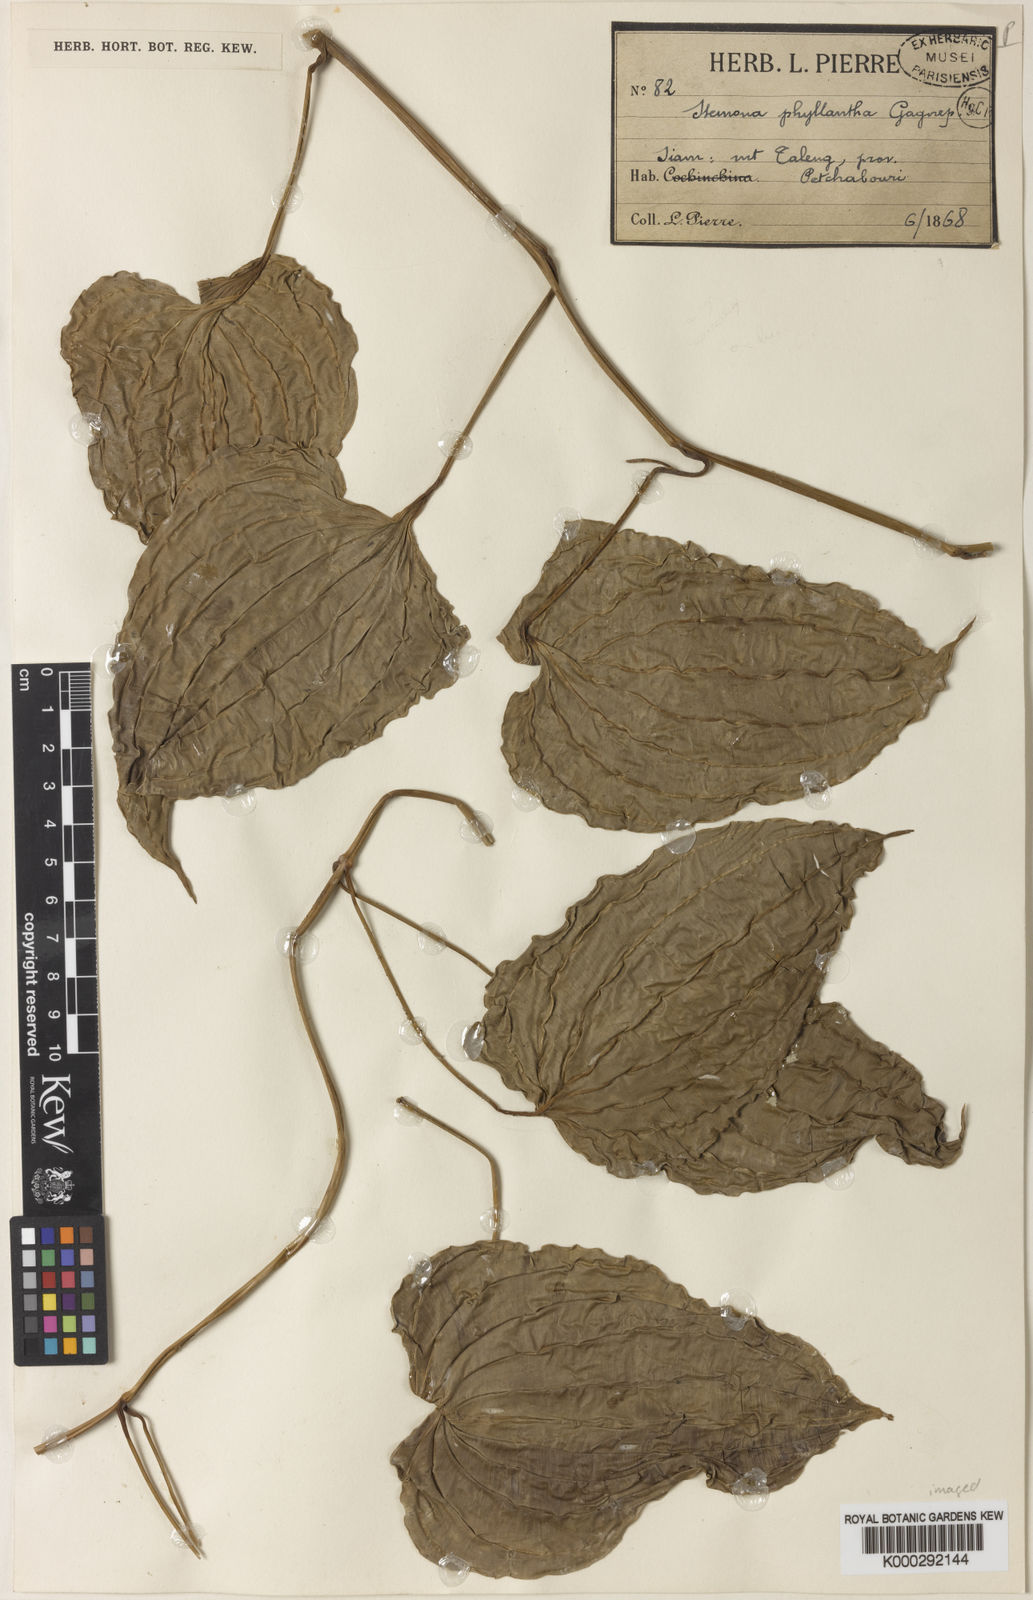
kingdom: Plantae
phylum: Tracheophyta
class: Liliopsida
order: Pandanales
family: Stemonaceae
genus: Stemona
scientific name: Stemona phyllantha
